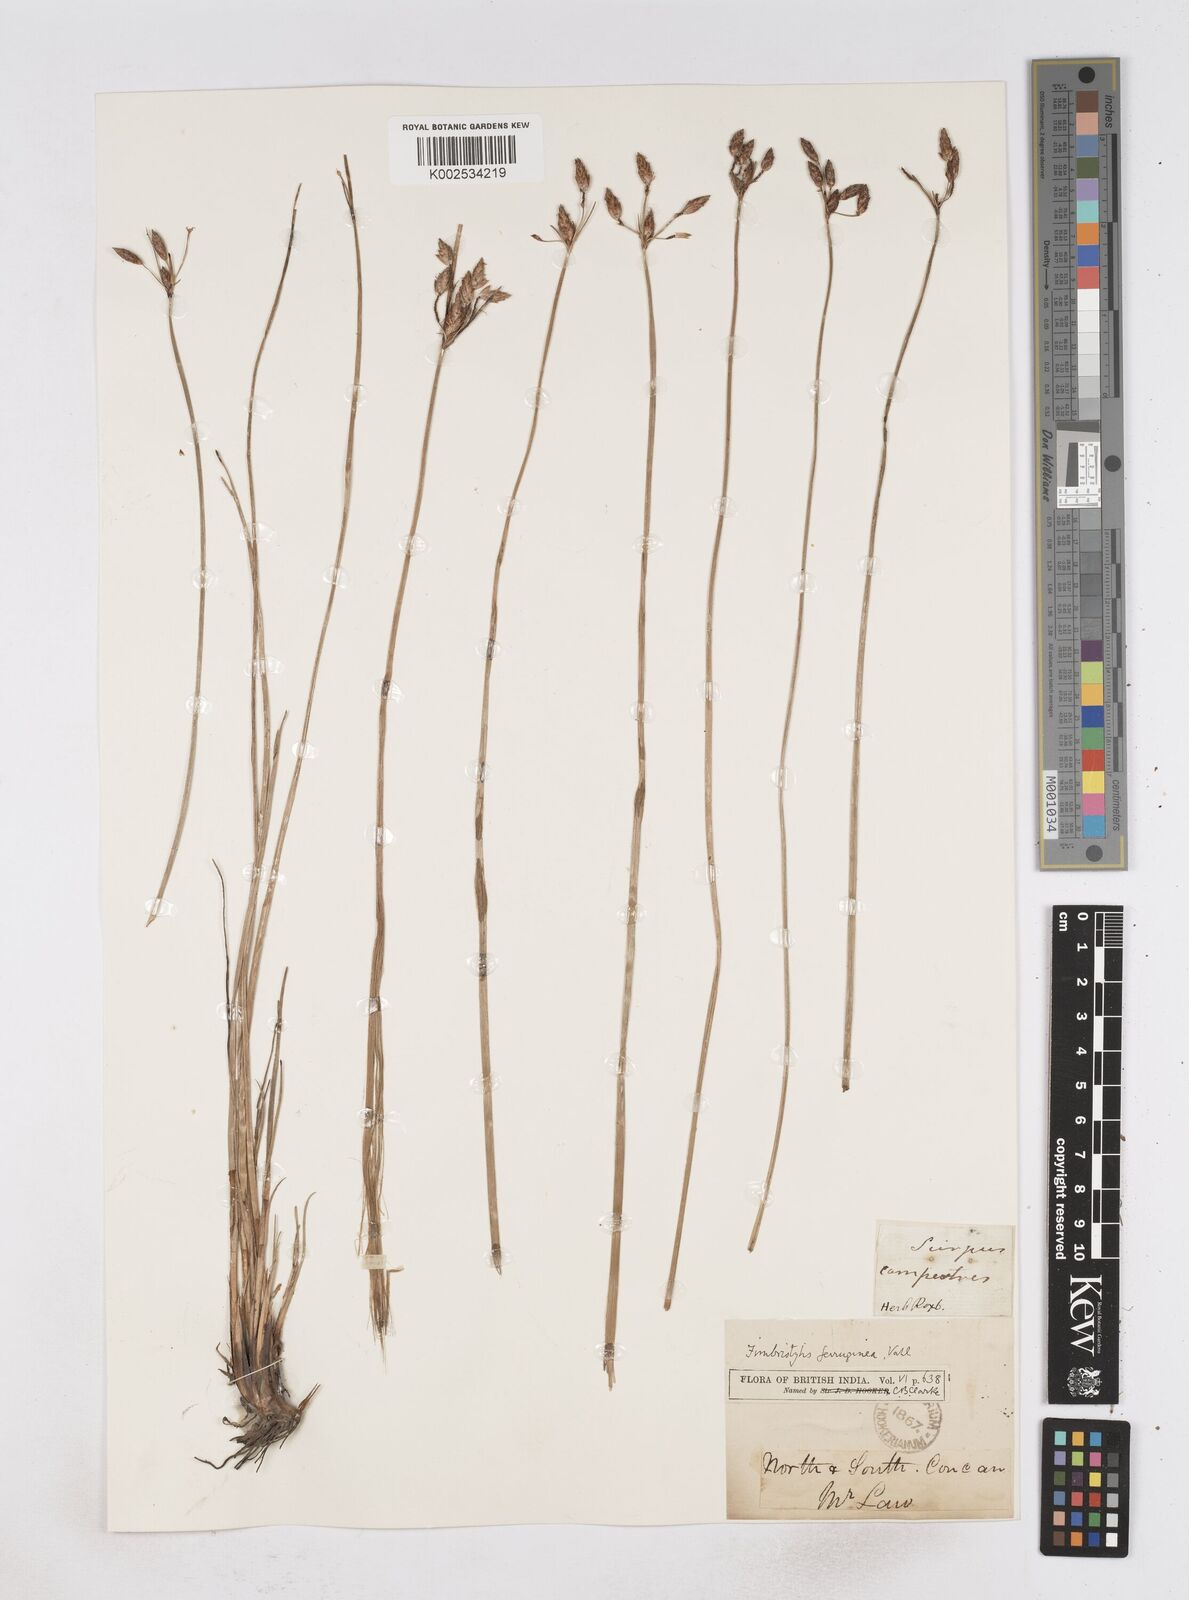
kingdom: Plantae
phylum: Tracheophyta
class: Liliopsida
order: Poales
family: Cyperaceae
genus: Fimbristylis
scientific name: Fimbristylis ferruginea
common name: West indian fimbry
